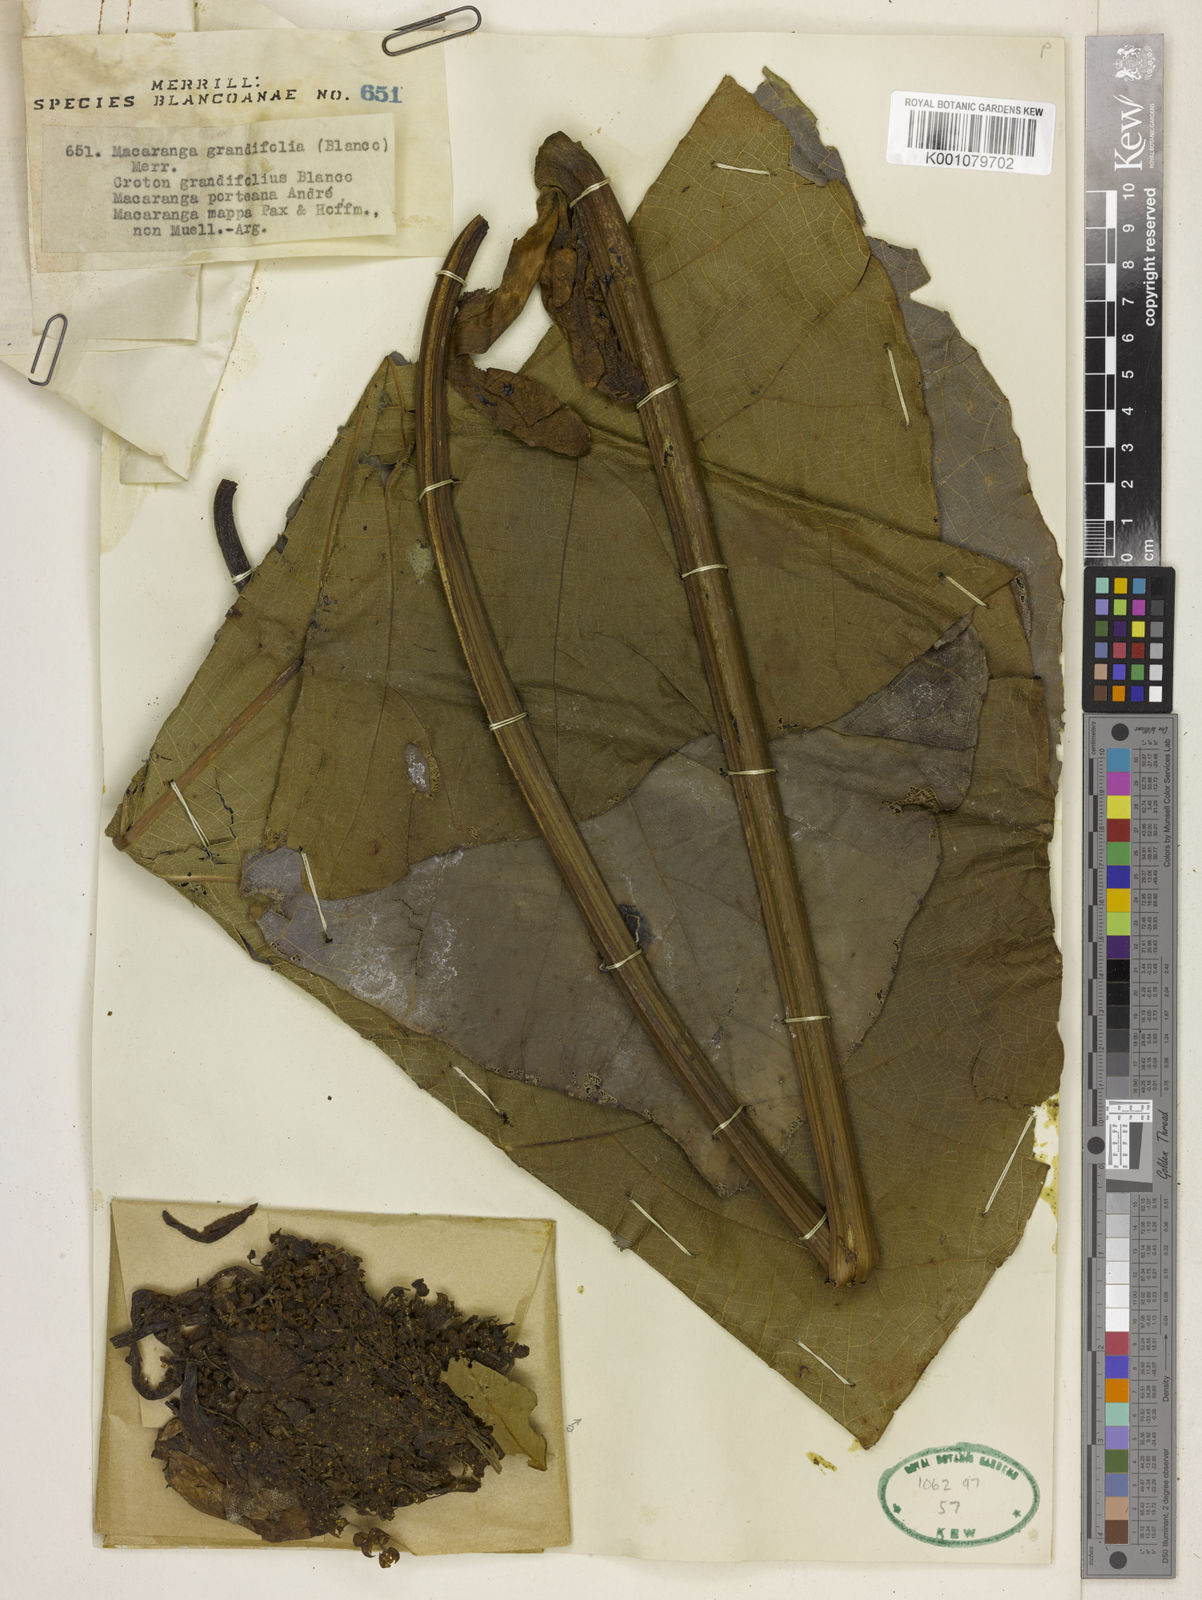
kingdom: Plantae
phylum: Tracheophyta
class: Magnoliopsida
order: Malpighiales
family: Euphorbiaceae
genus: Macaranga
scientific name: Macaranga grandifolia
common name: Coraltree
